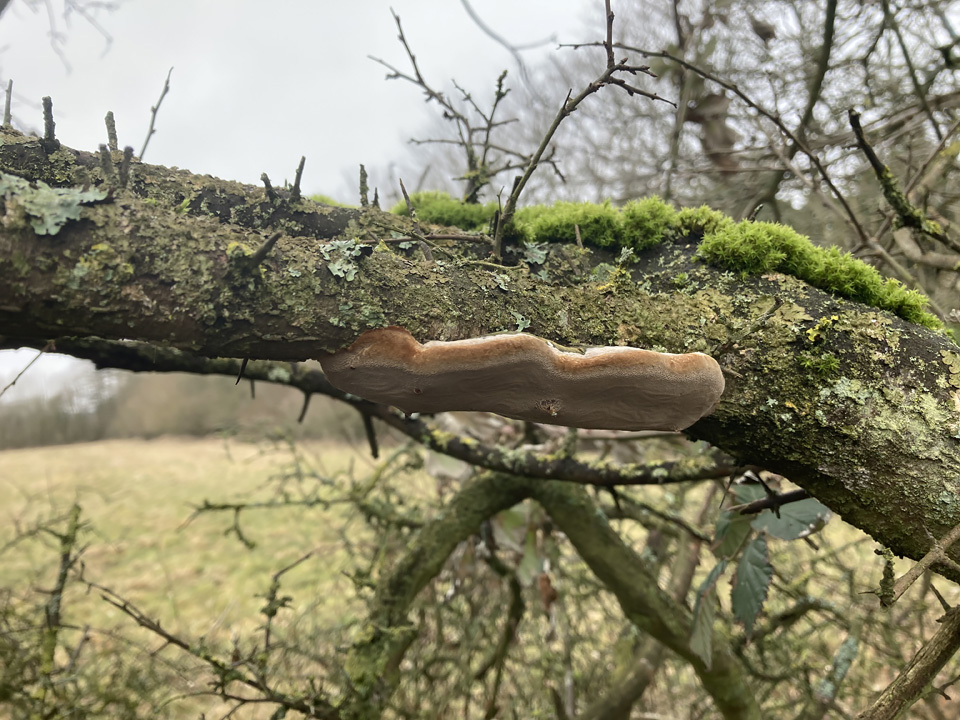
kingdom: Fungi
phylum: Basidiomycota
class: Agaricomycetes
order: Hymenochaetales
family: Hymenochaetaceae
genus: Phellinus
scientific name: Phellinus pomaceus
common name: blomme-ildporesvamp
